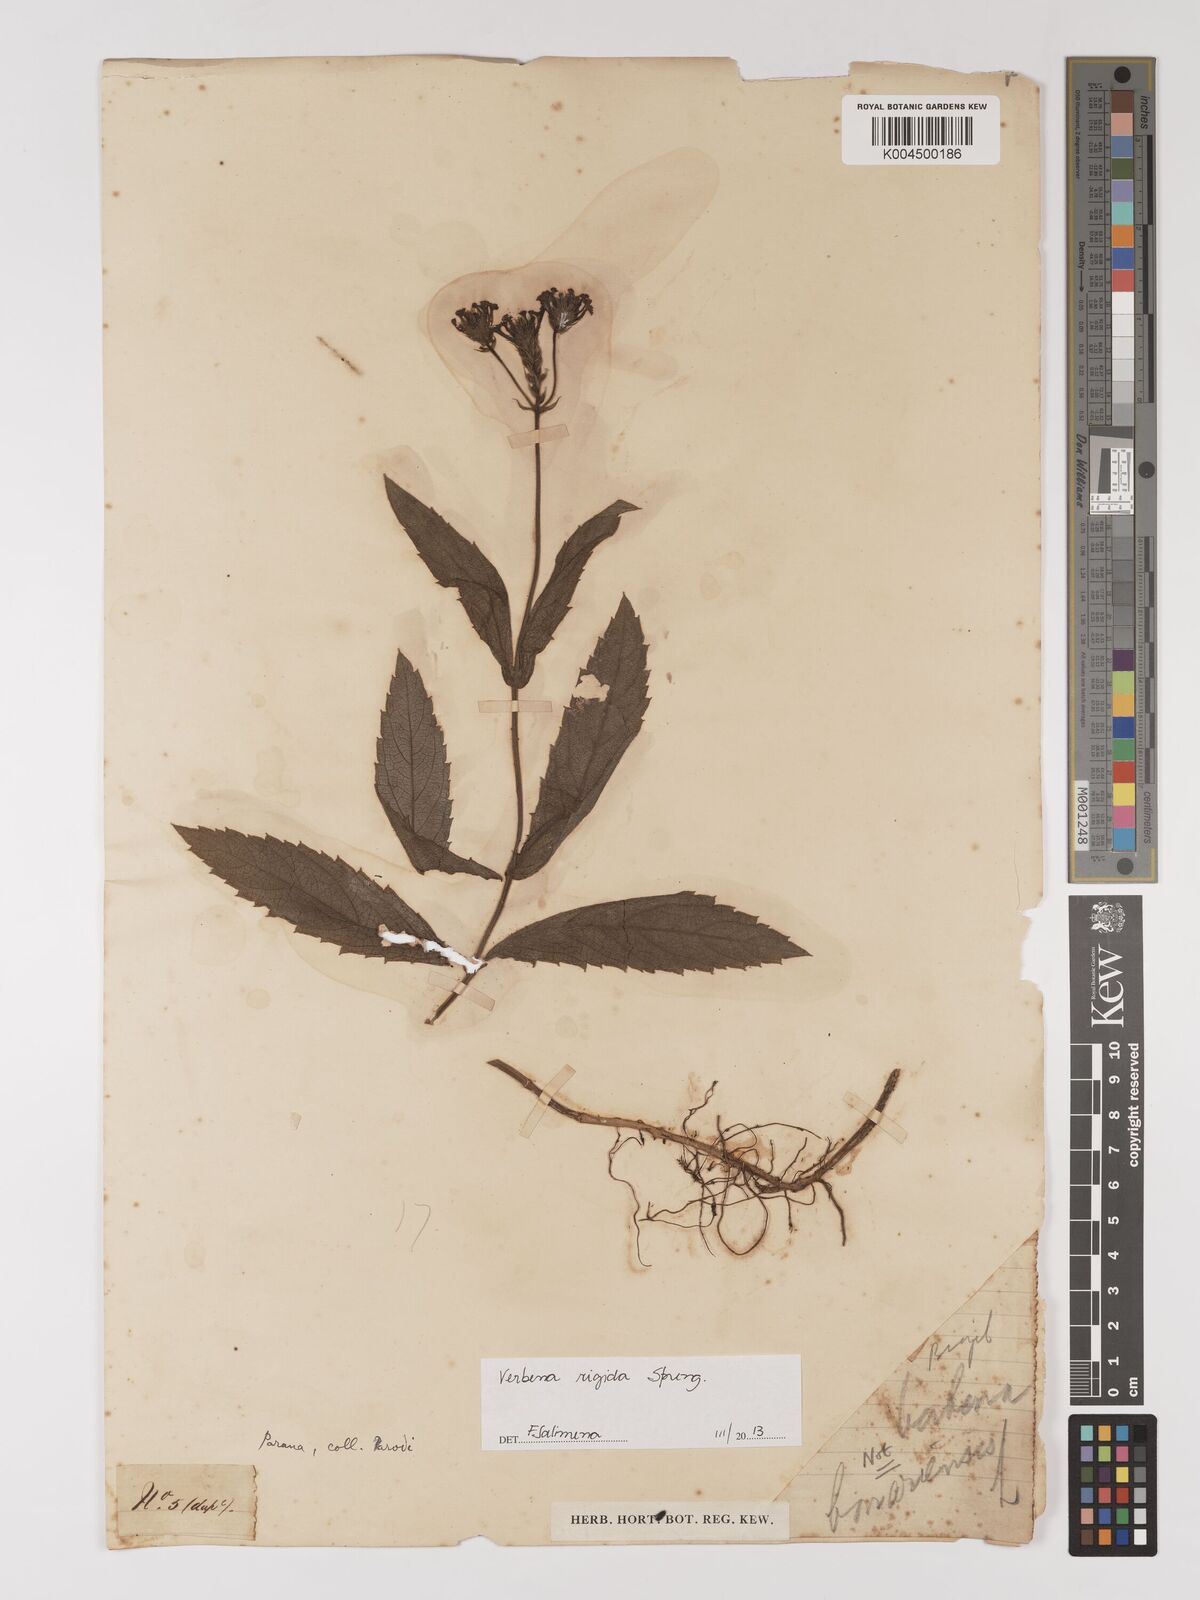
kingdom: Plantae
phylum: Tracheophyta
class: Magnoliopsida
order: Lamiales
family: Verbenaceae
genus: Verbena
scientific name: Verbena rigida
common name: Slender vervain
